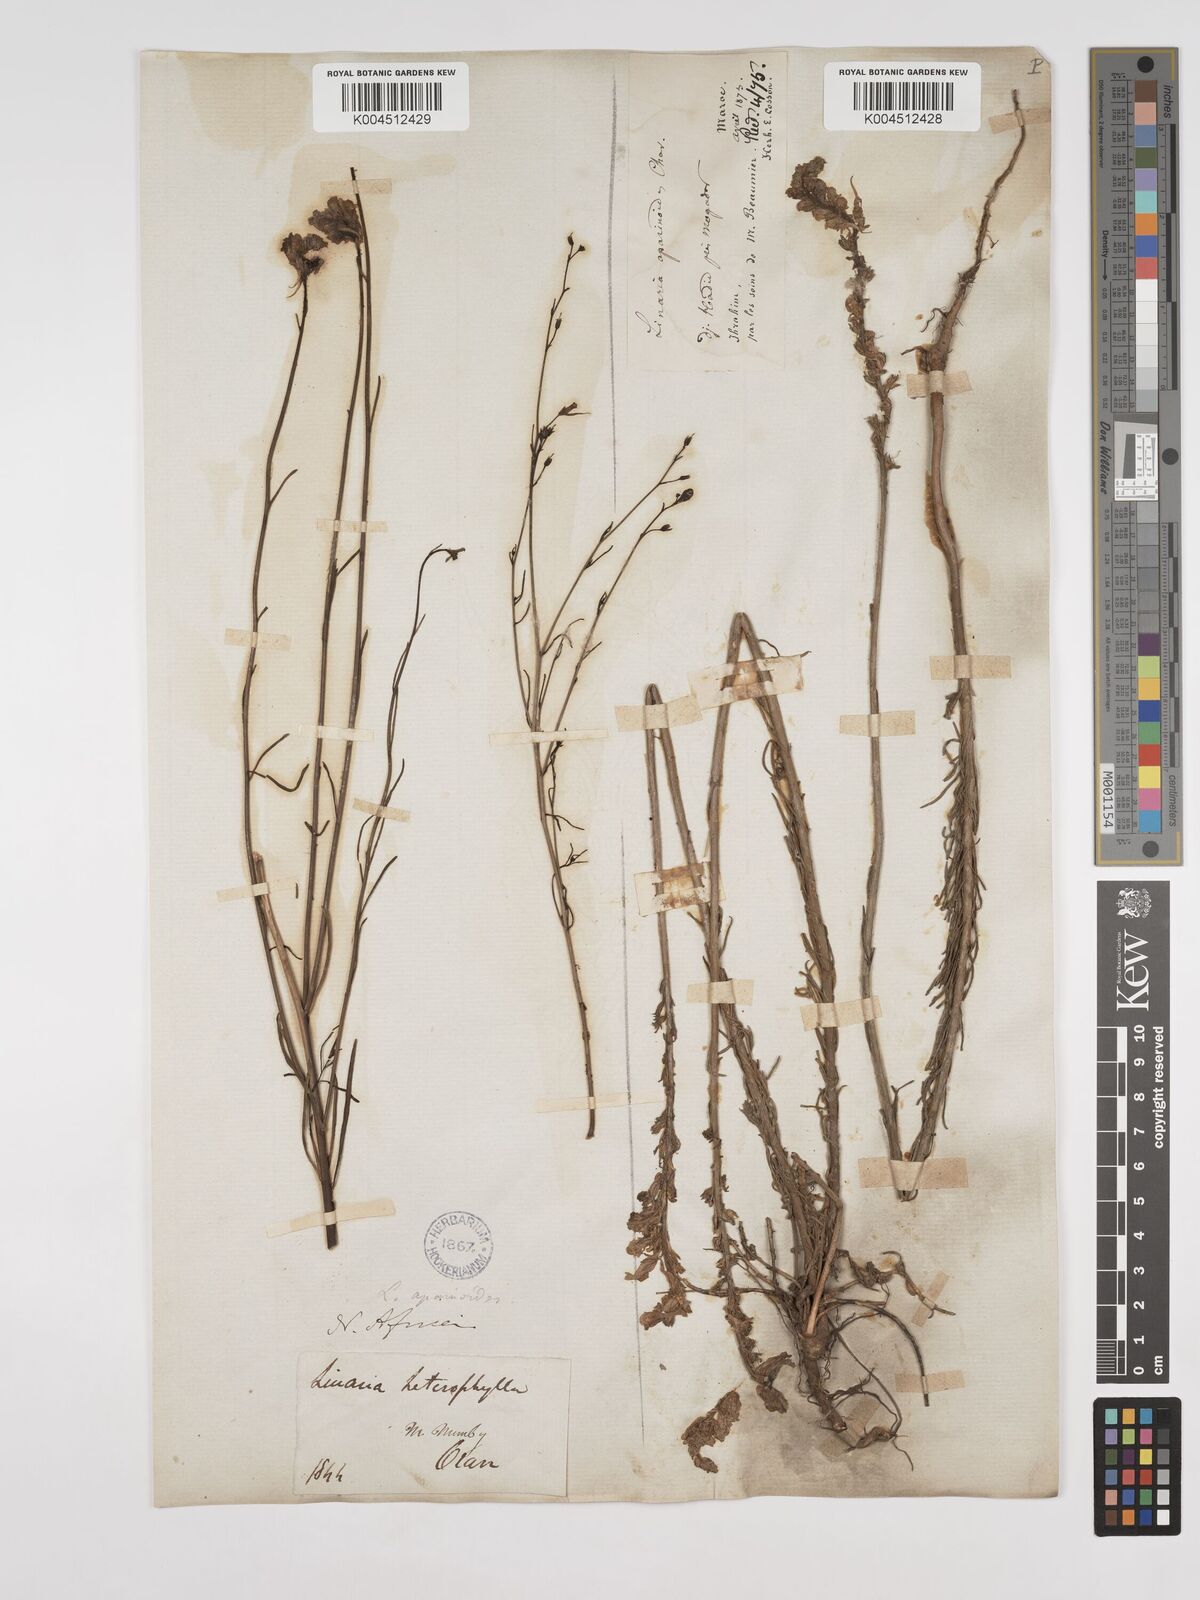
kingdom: Plantae
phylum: Tracheophyta
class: Magnoliopsida
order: Lamiales
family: Plantaginaceae
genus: Linaria
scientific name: Linaria multicaulis
